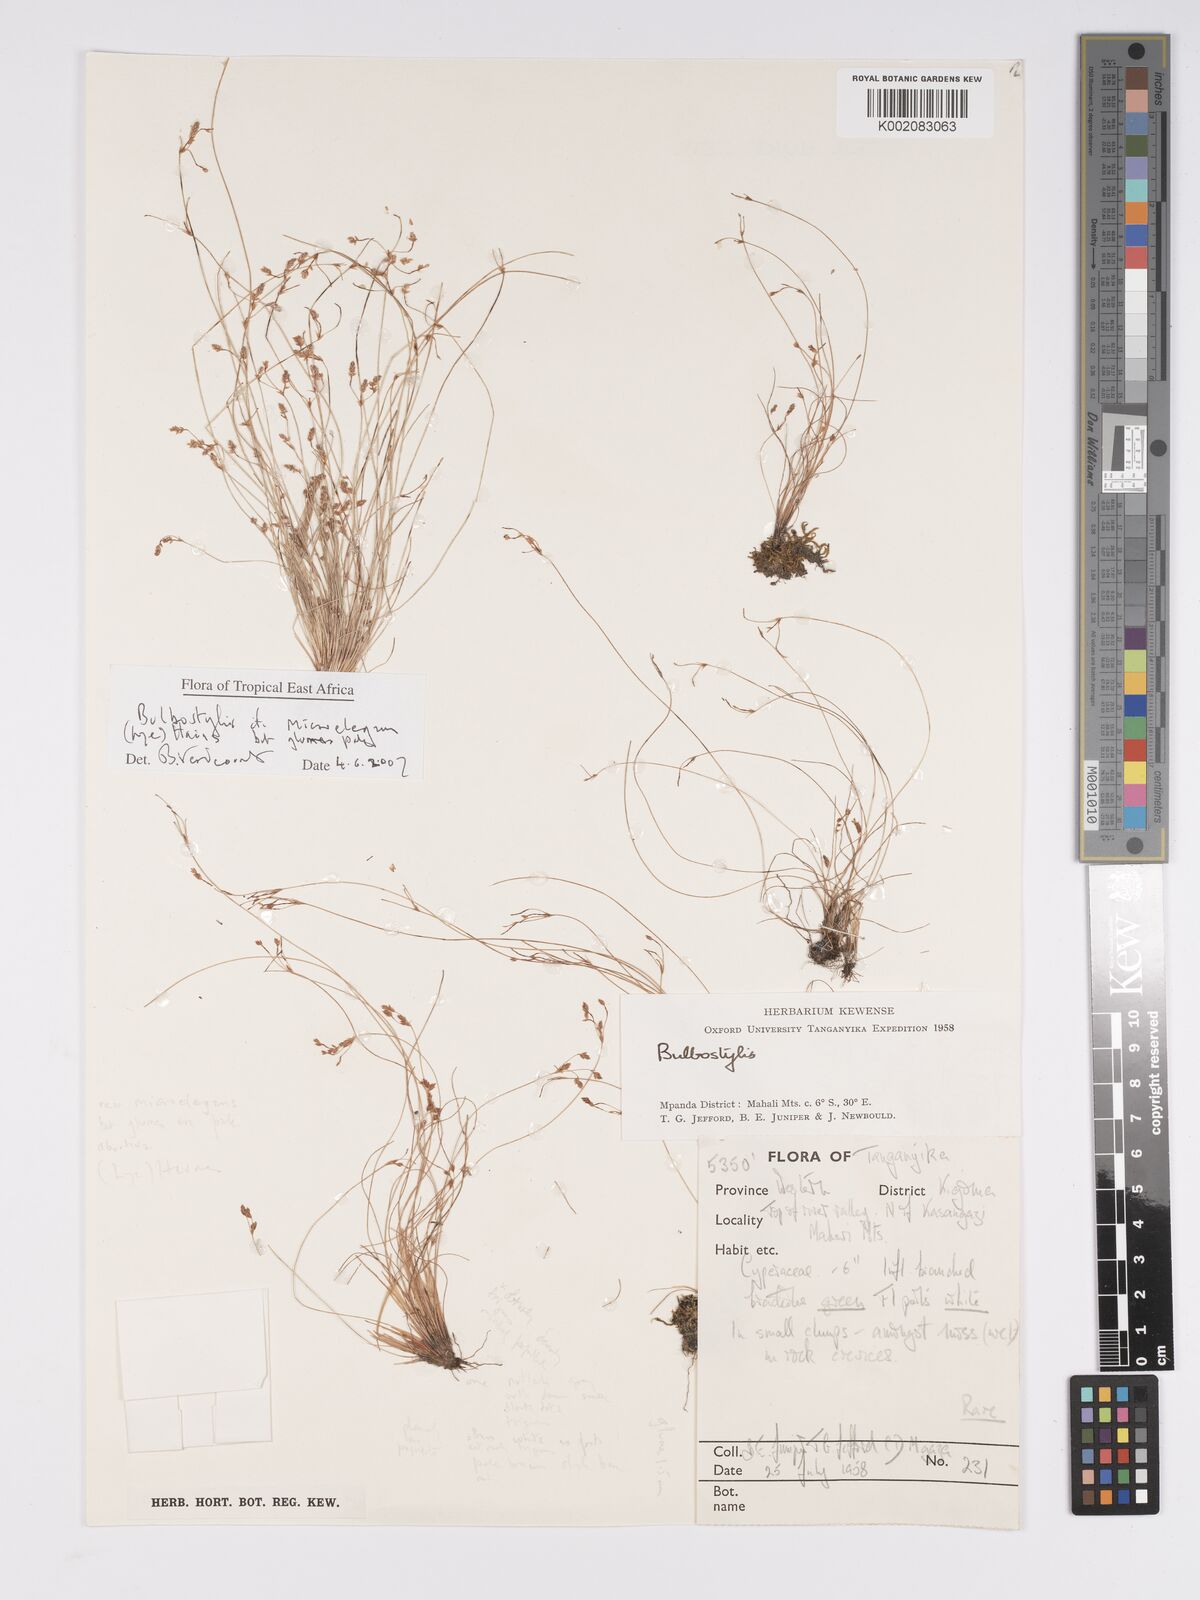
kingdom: Plantae
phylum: Tracheophyta
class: Liliopsida
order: Poales
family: Cyperaceae
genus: Bulbostylis
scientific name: Bulbostylis microelegans
